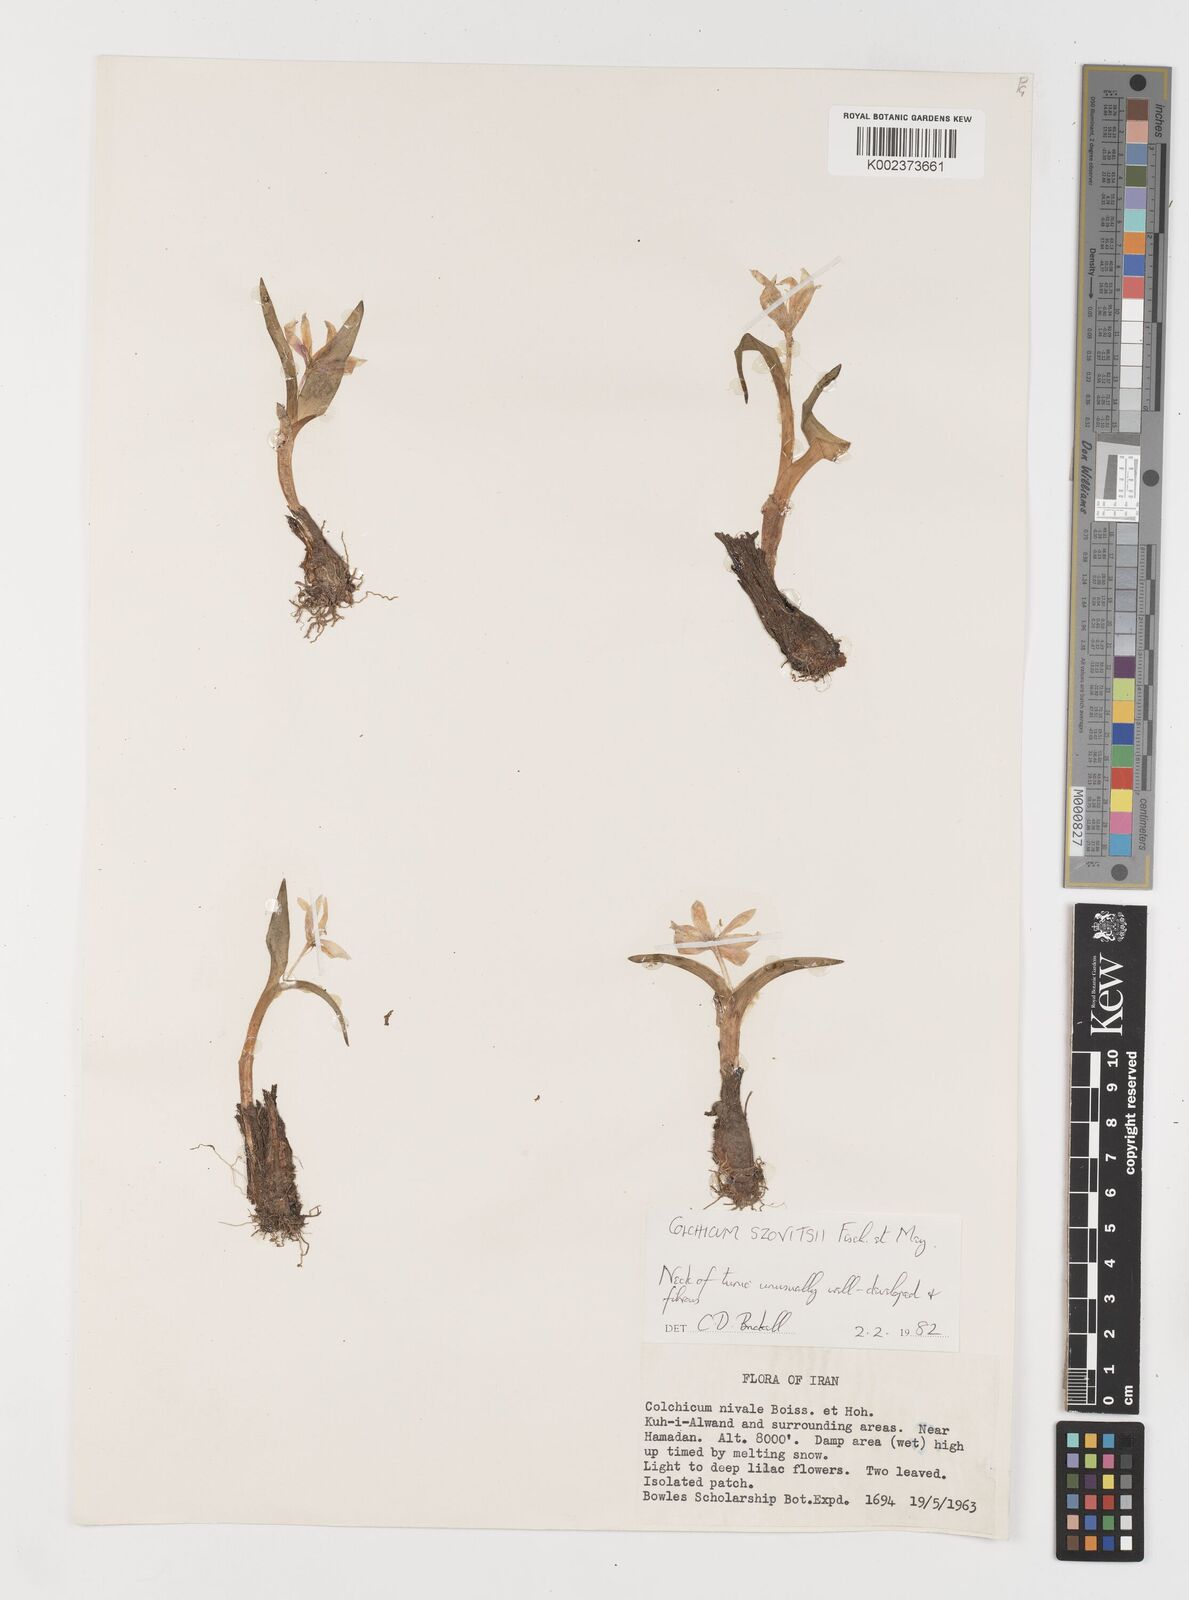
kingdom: Plantae
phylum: Tracheophyta
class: Liliopsida
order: Liliales
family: Colchicaceae
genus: Colchicum
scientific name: Colchicum szovitsii
